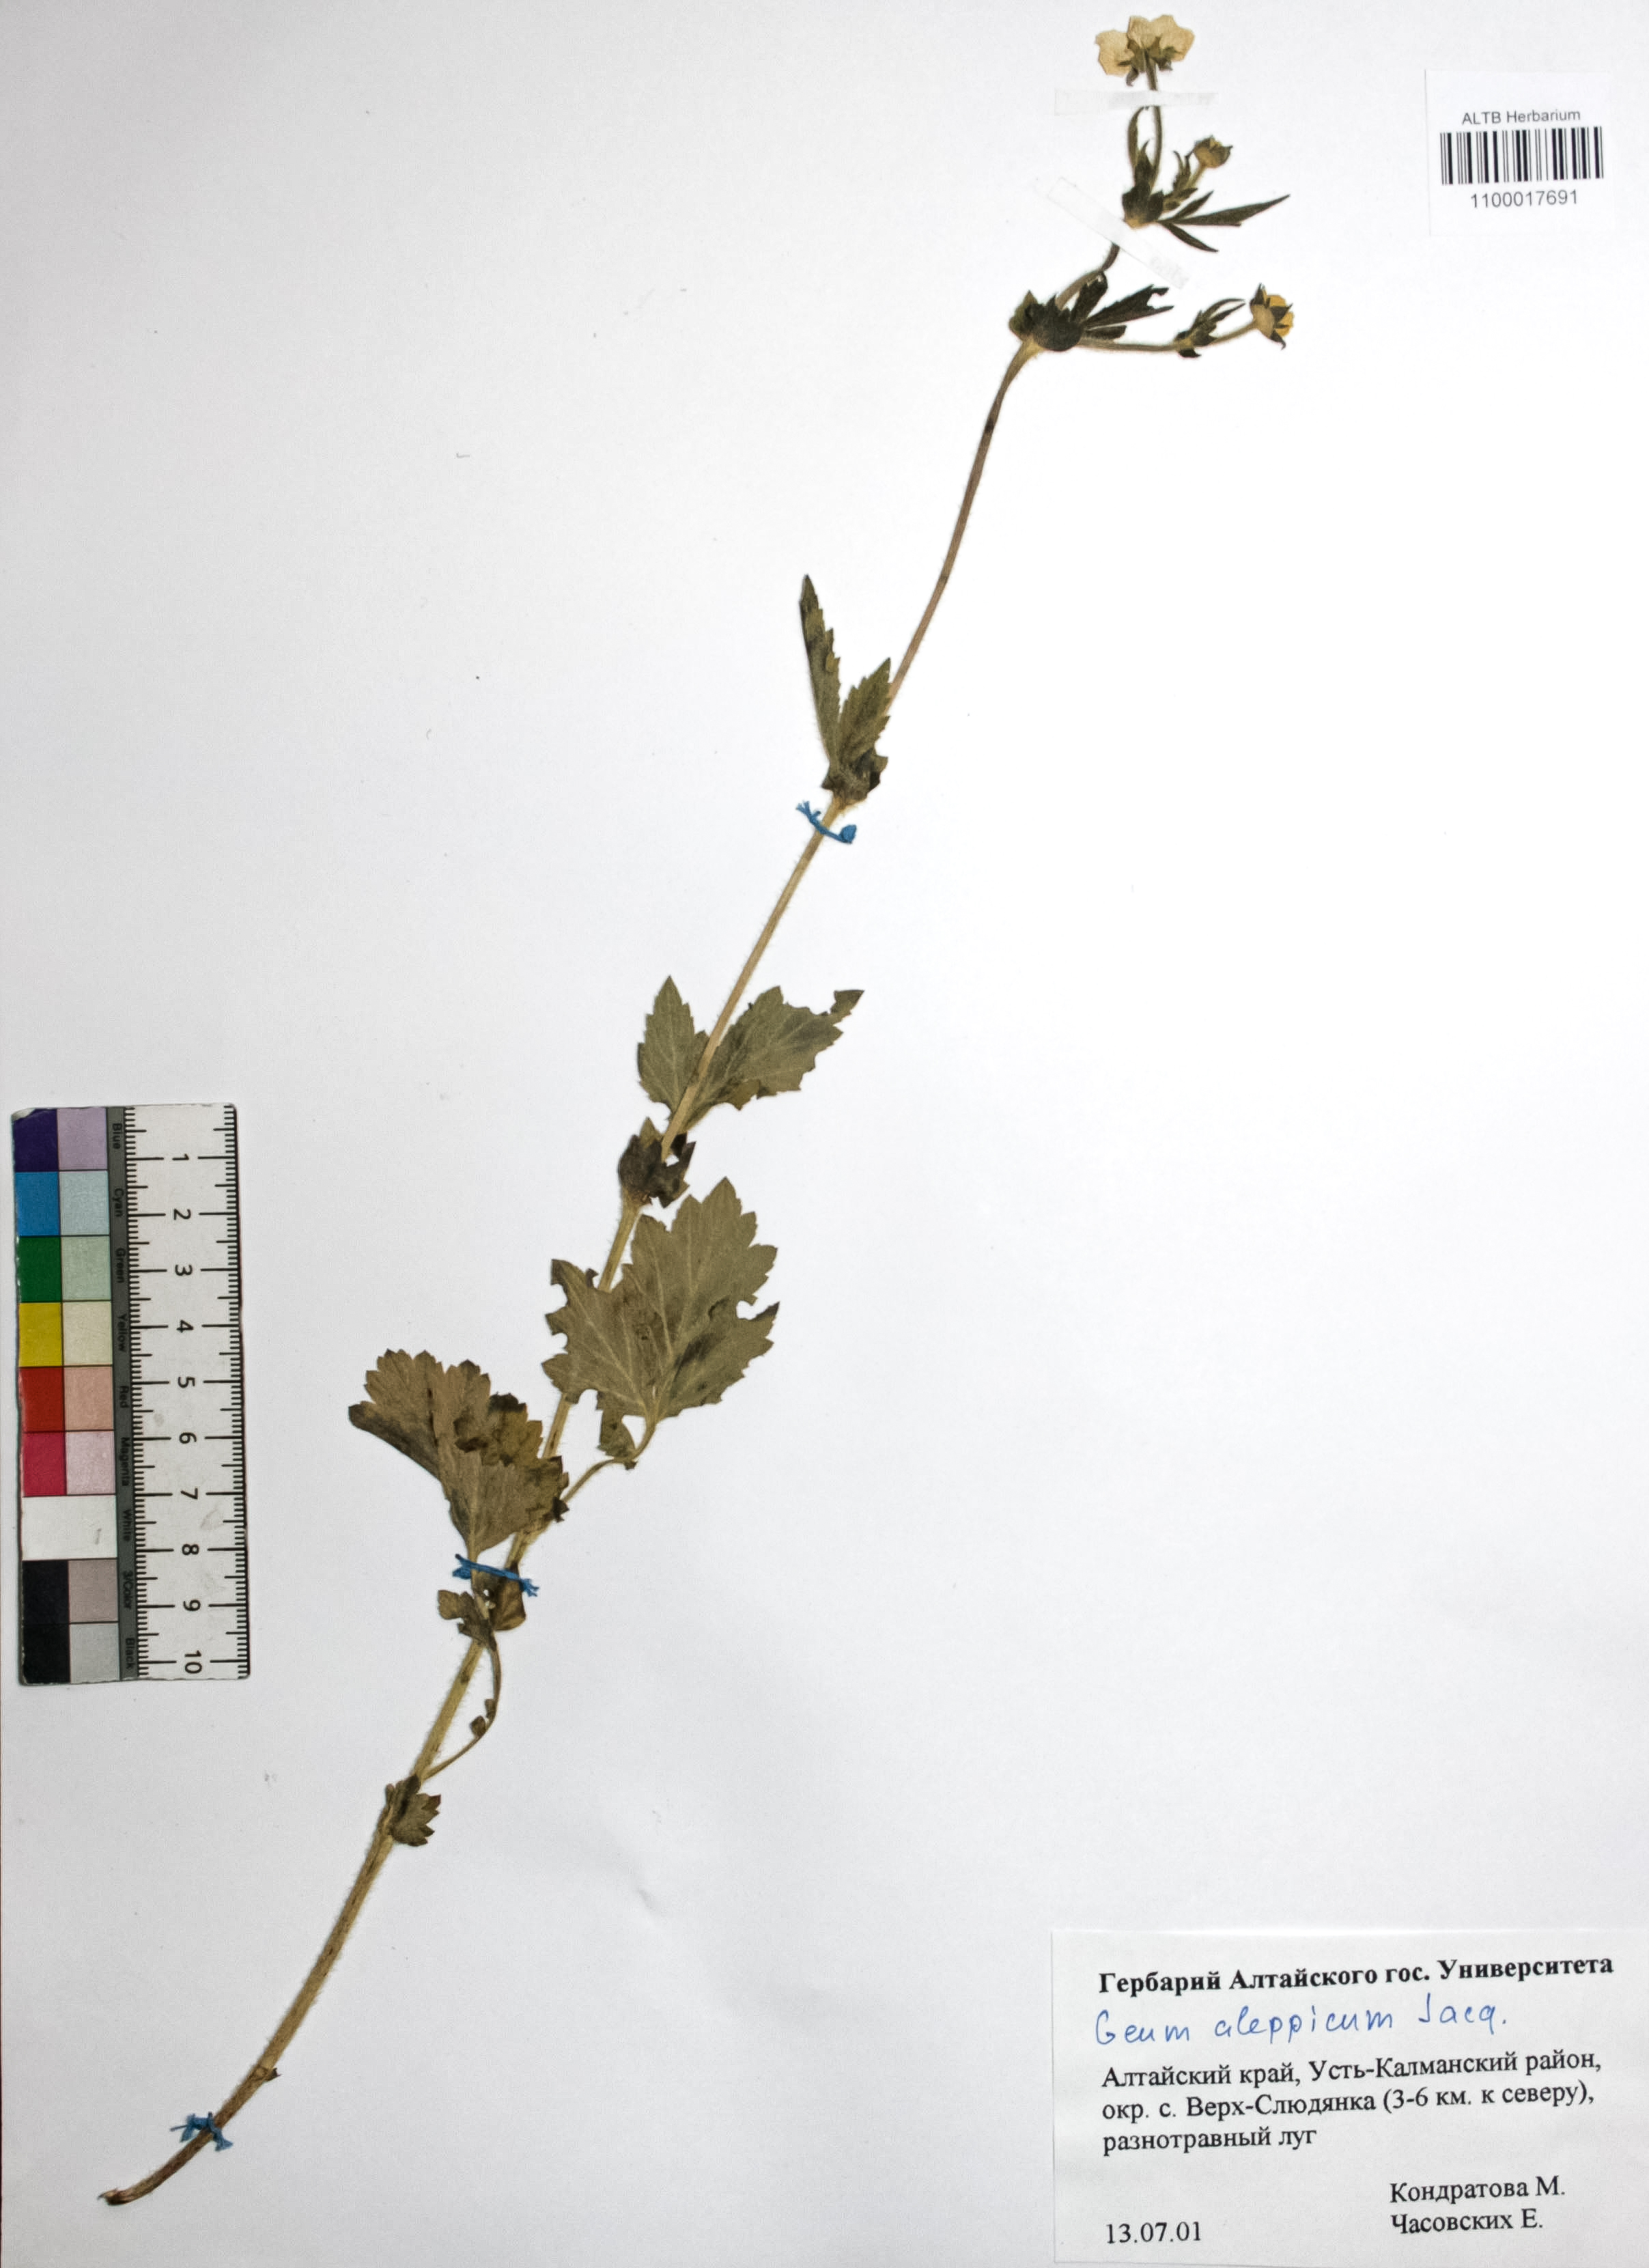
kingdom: Plantae
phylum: Tracheophyta
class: Magnoliopsida
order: Rosales
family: Rosaceae
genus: Geum
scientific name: Geum aleppicum
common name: Yellow avens
